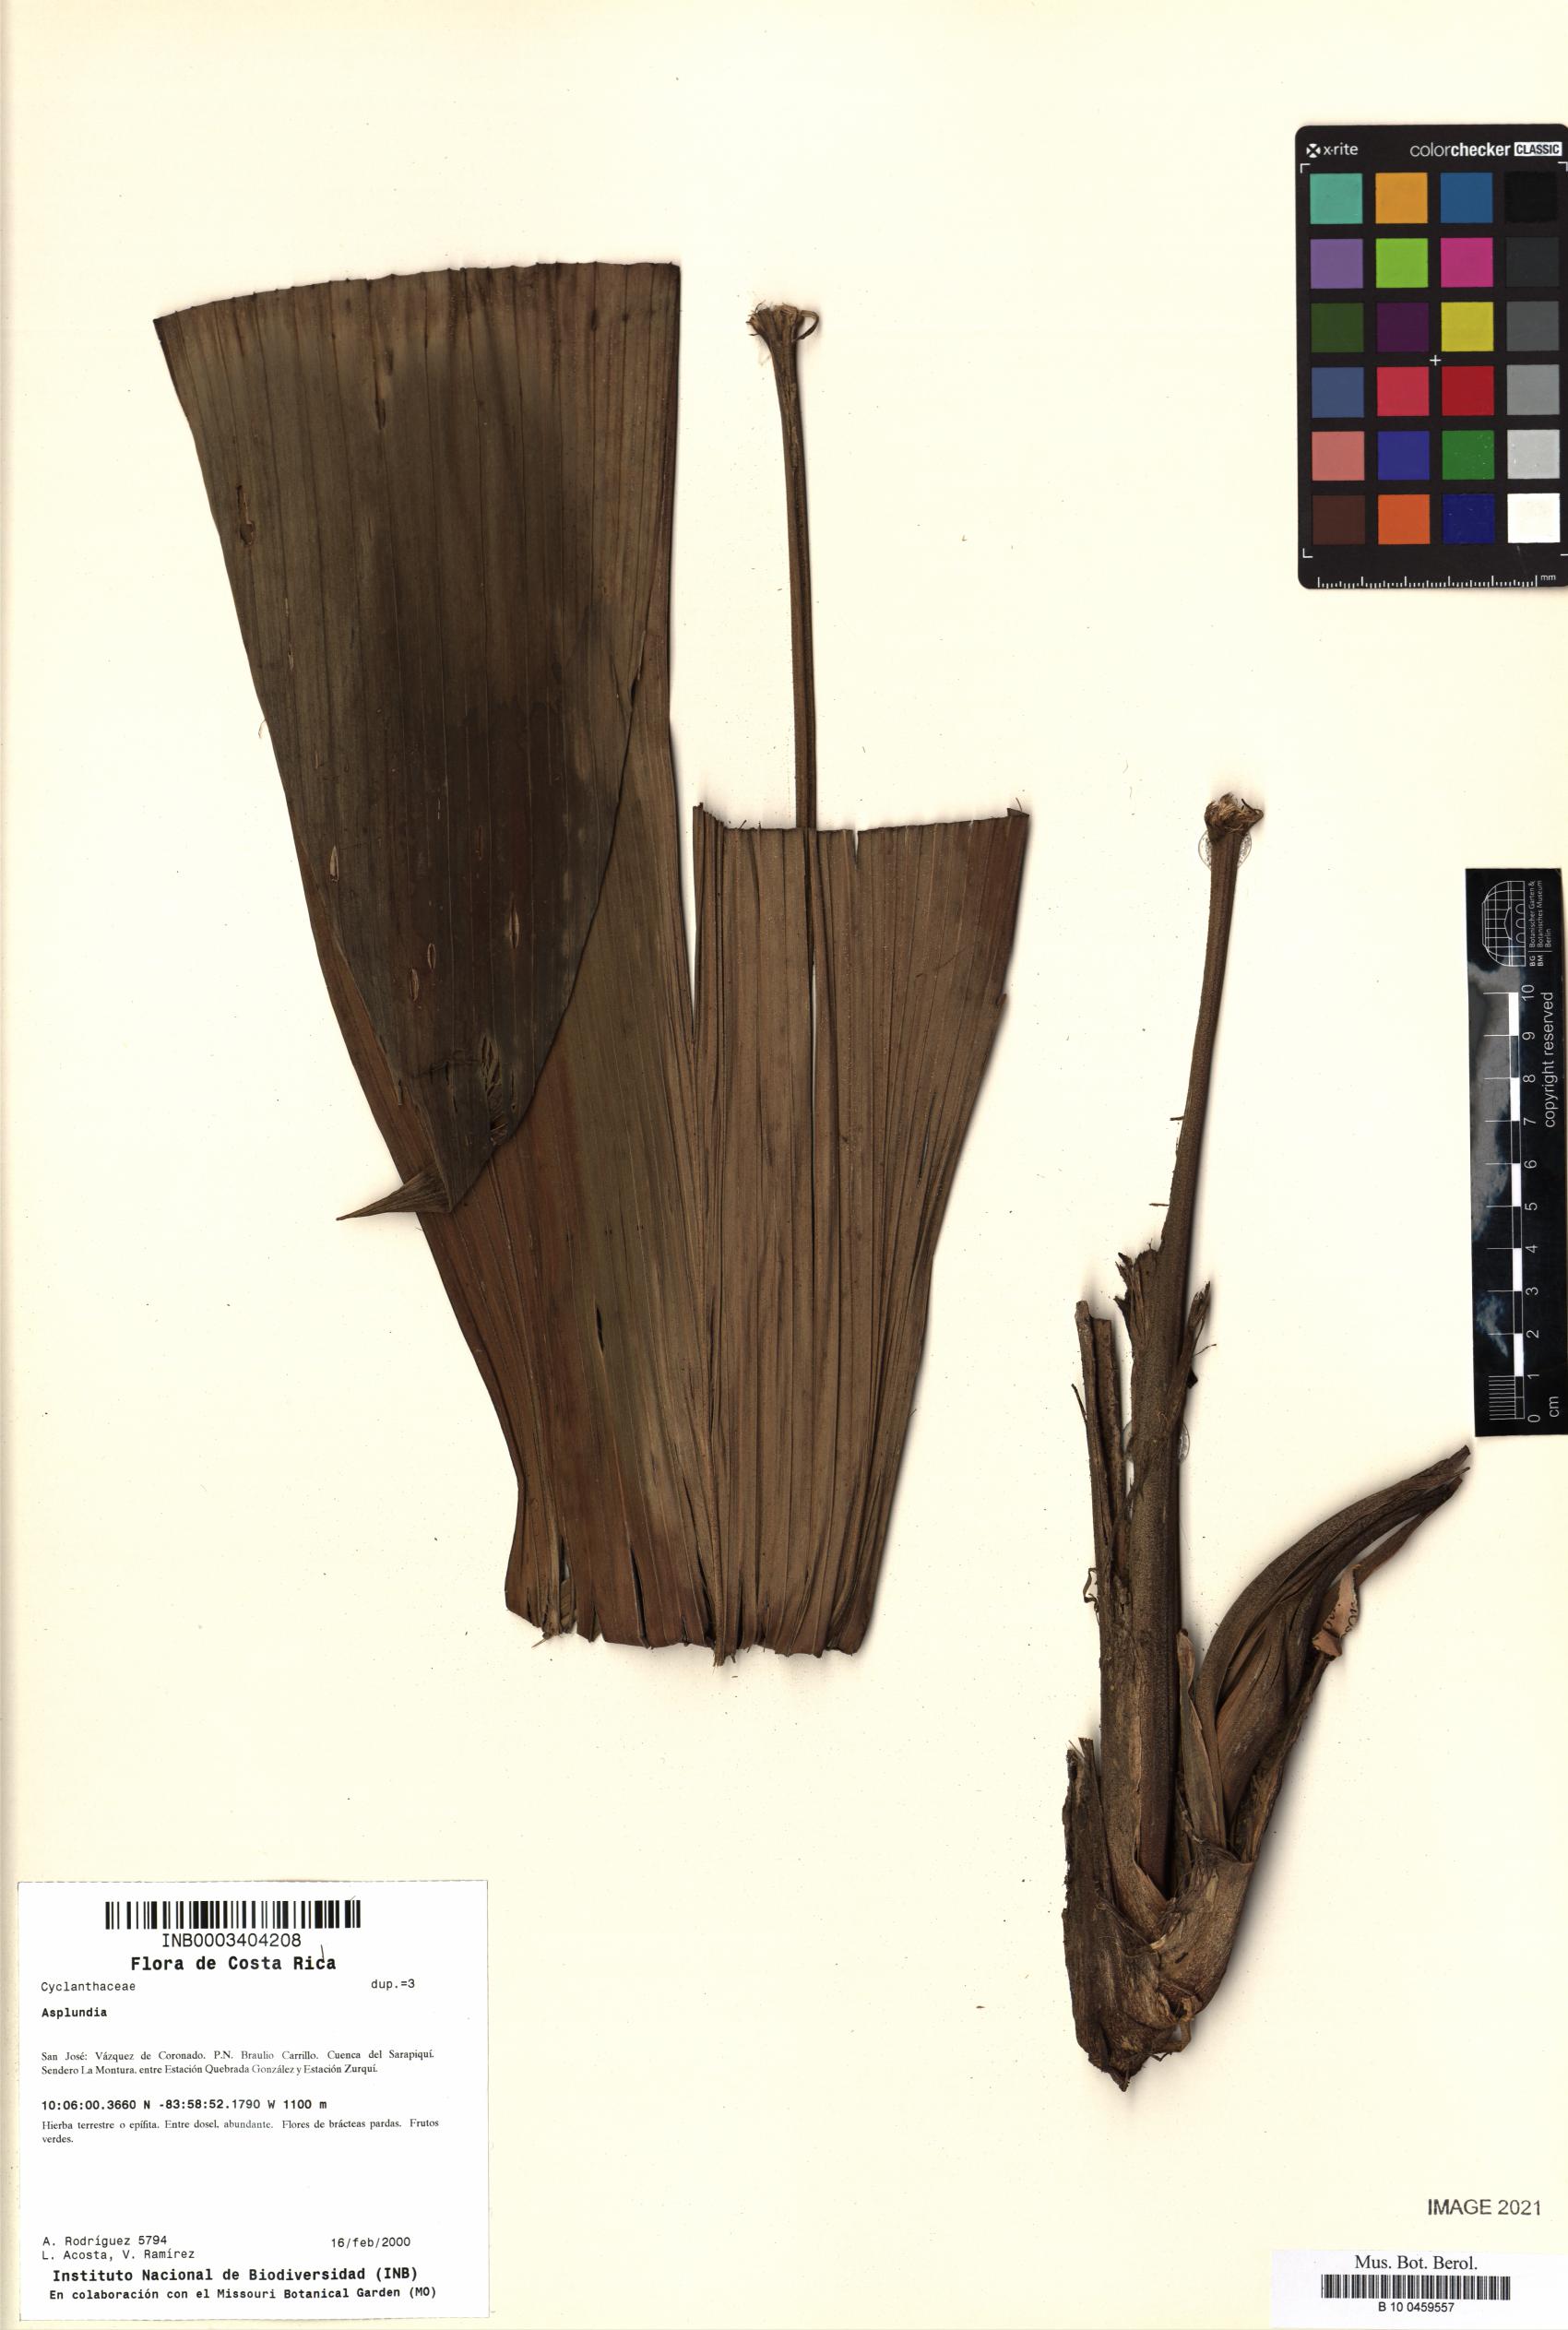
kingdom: Plantae
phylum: Tracheophyta
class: Liliopsida
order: Pandanales
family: Cyclanthaceae
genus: Asplundia
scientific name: Asplundia
